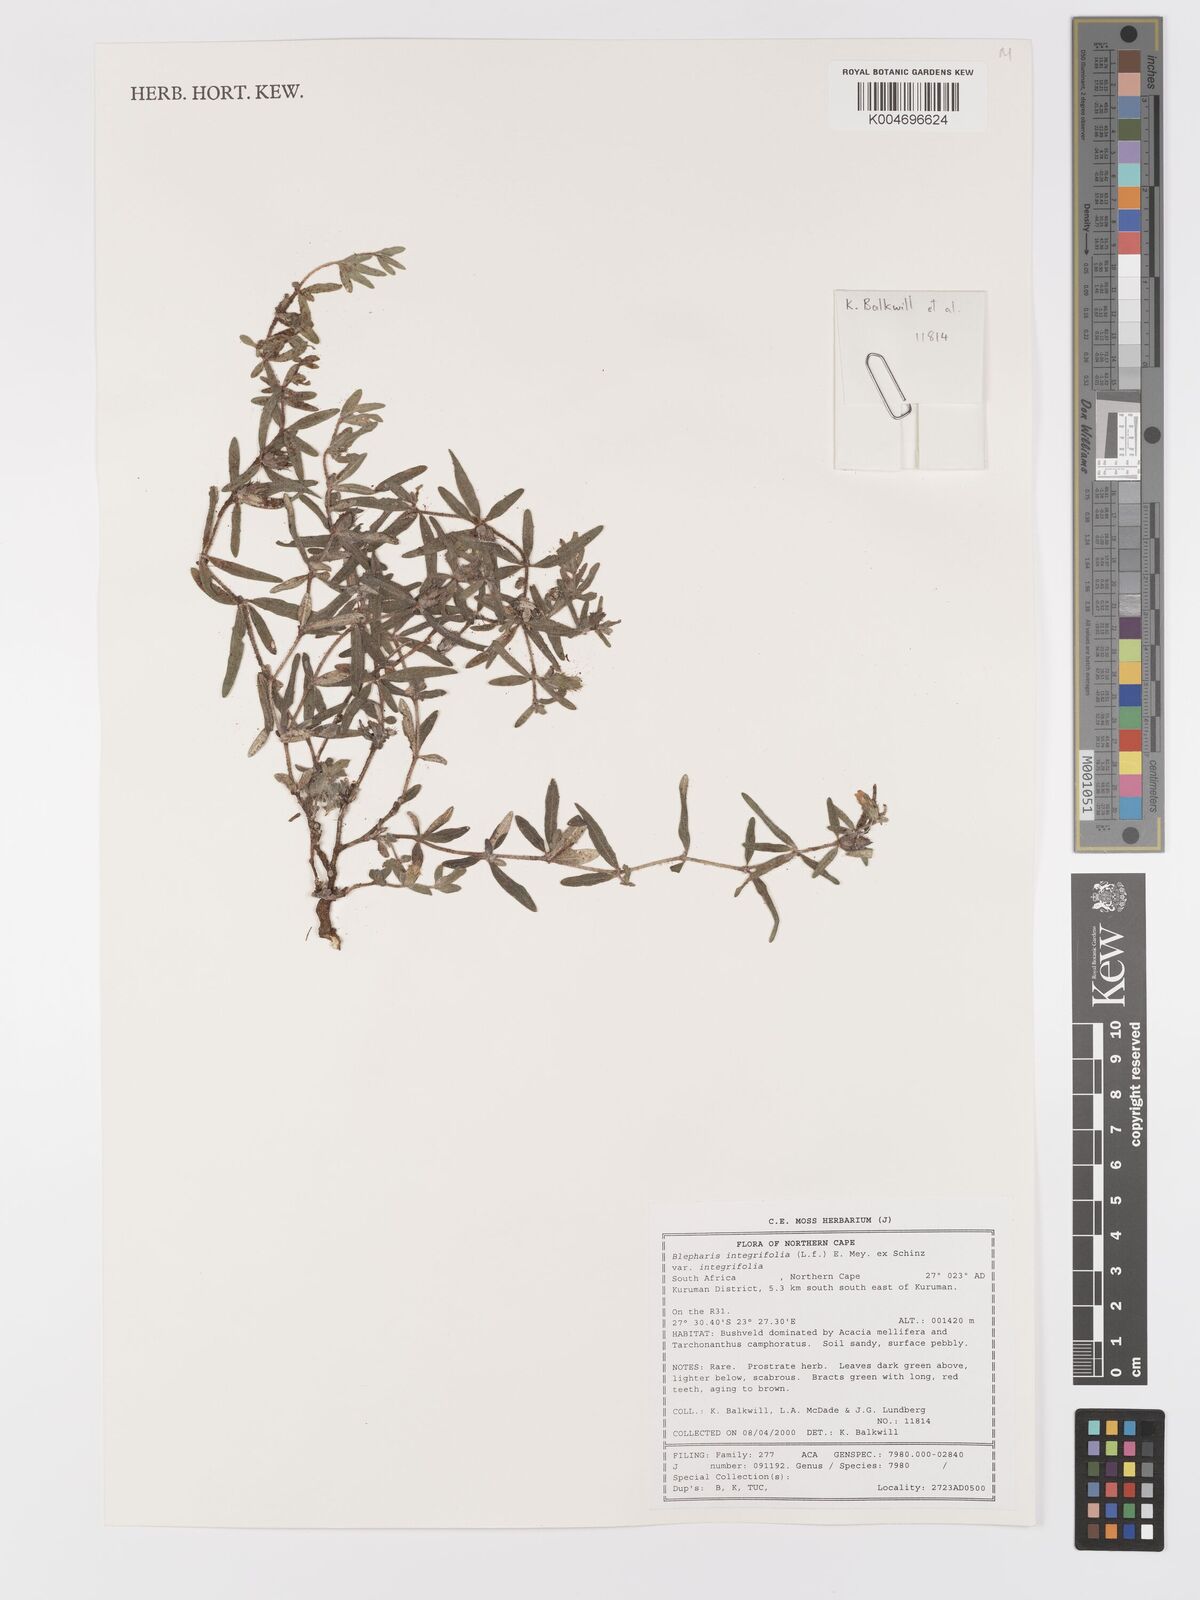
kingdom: Plantae
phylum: Tracheophyta
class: Magnoliopsida
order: Lamiales
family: Acanthaceae
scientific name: Acanthaceae
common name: Acanthaceae
